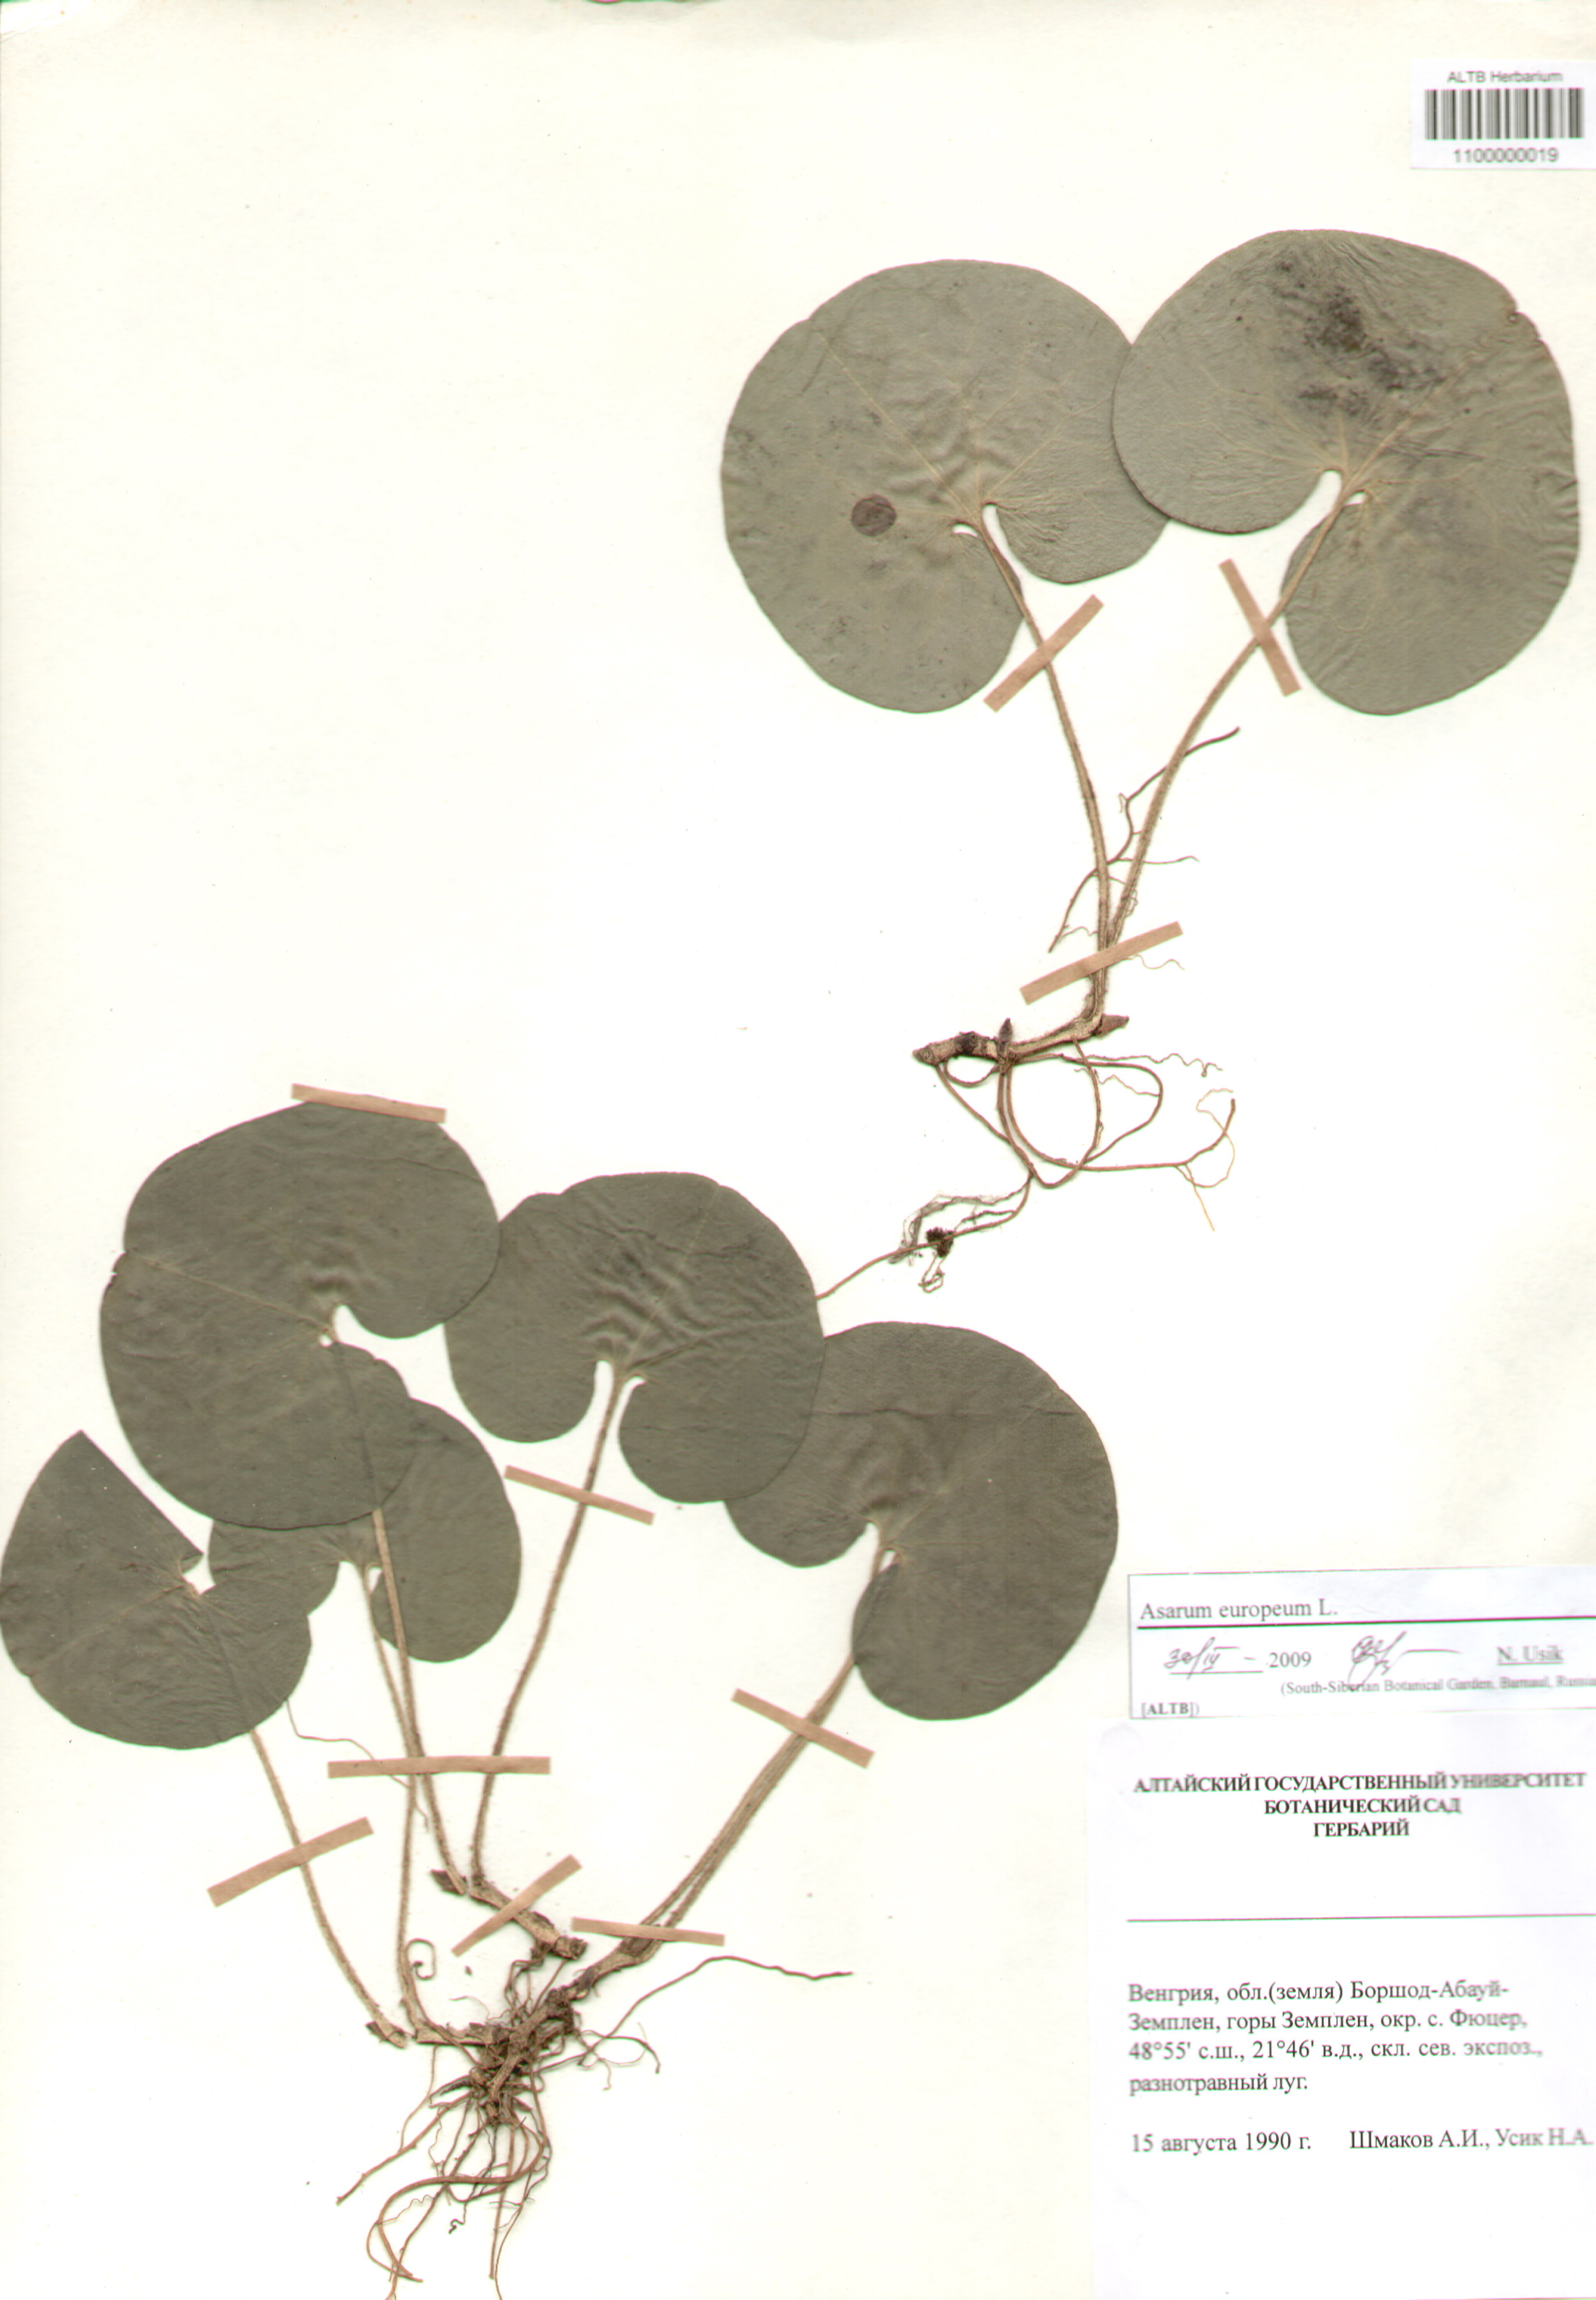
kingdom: Plantae
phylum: Tracheophyta
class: Magnoliopsida
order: Piperales
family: Aristolochiaceae
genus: Asarum
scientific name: Asarum europaeum
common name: Asarabacca
